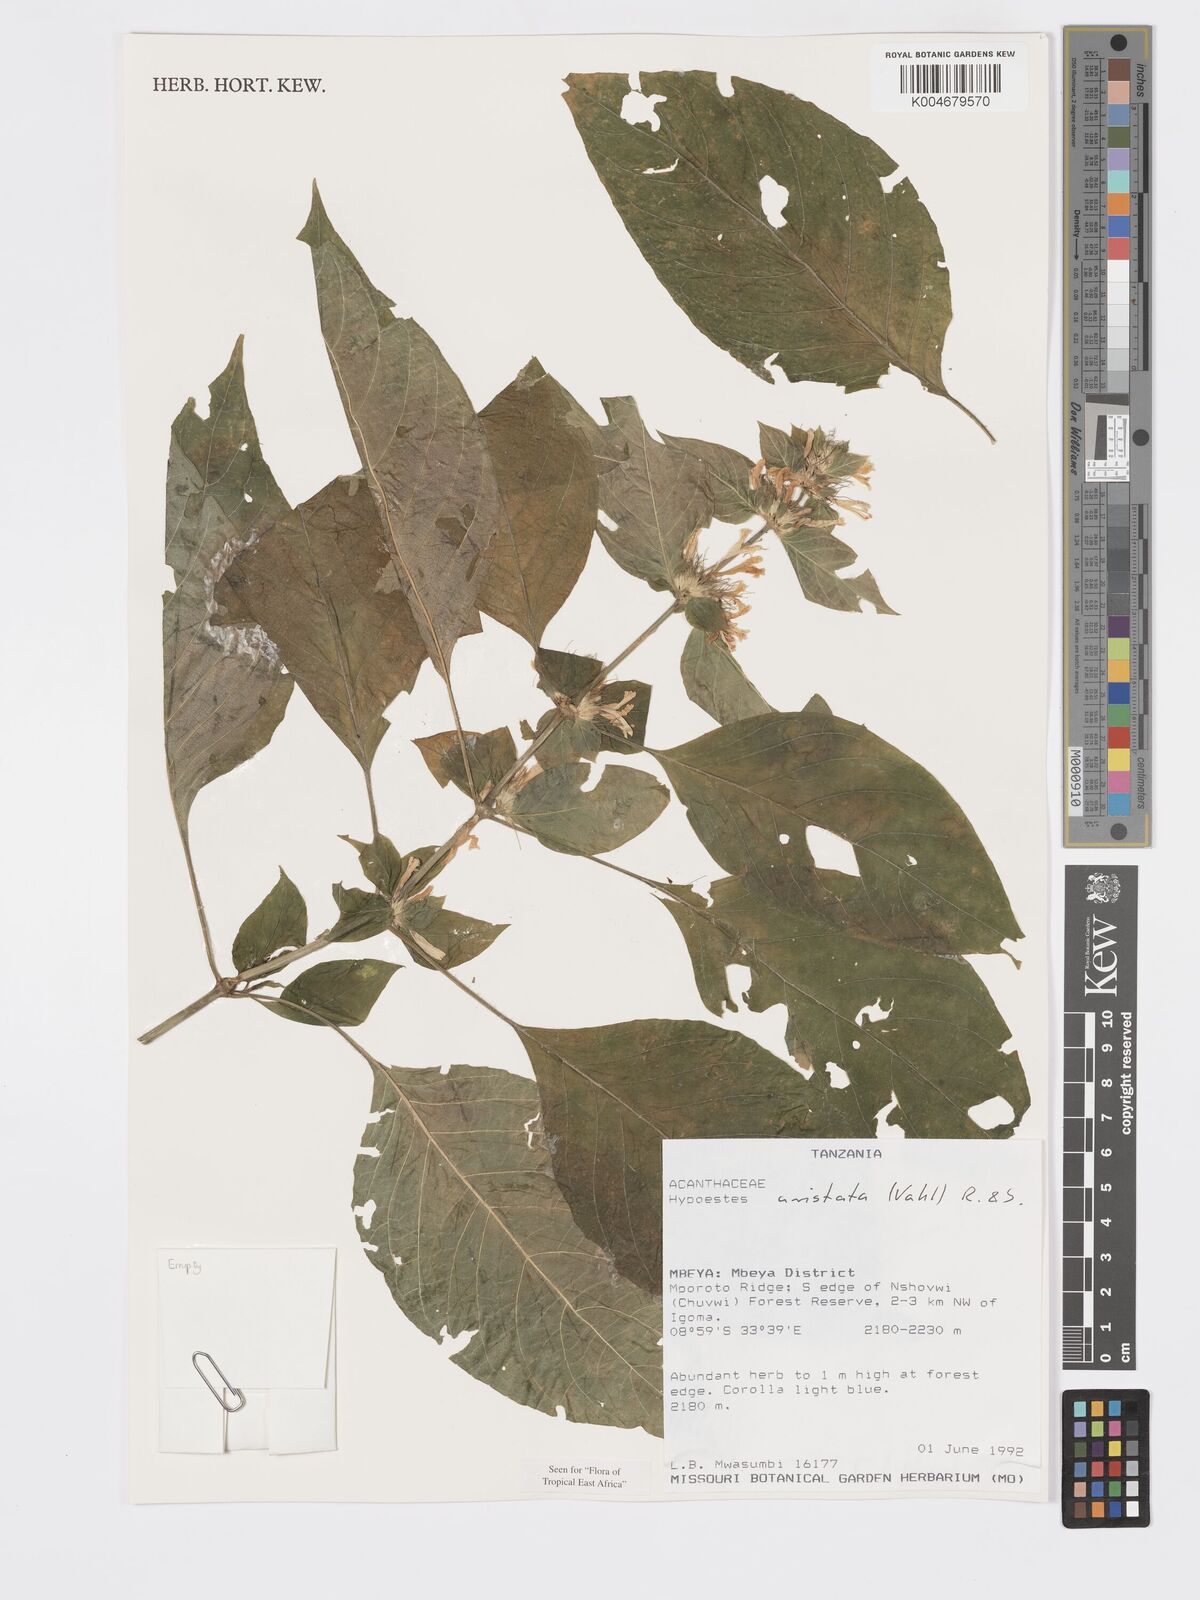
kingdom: Plantae
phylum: Tracheophyta
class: Magnoliopsida
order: Lamiales
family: Acanthaceae
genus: Hypoestes
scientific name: Hypoestes aristata
